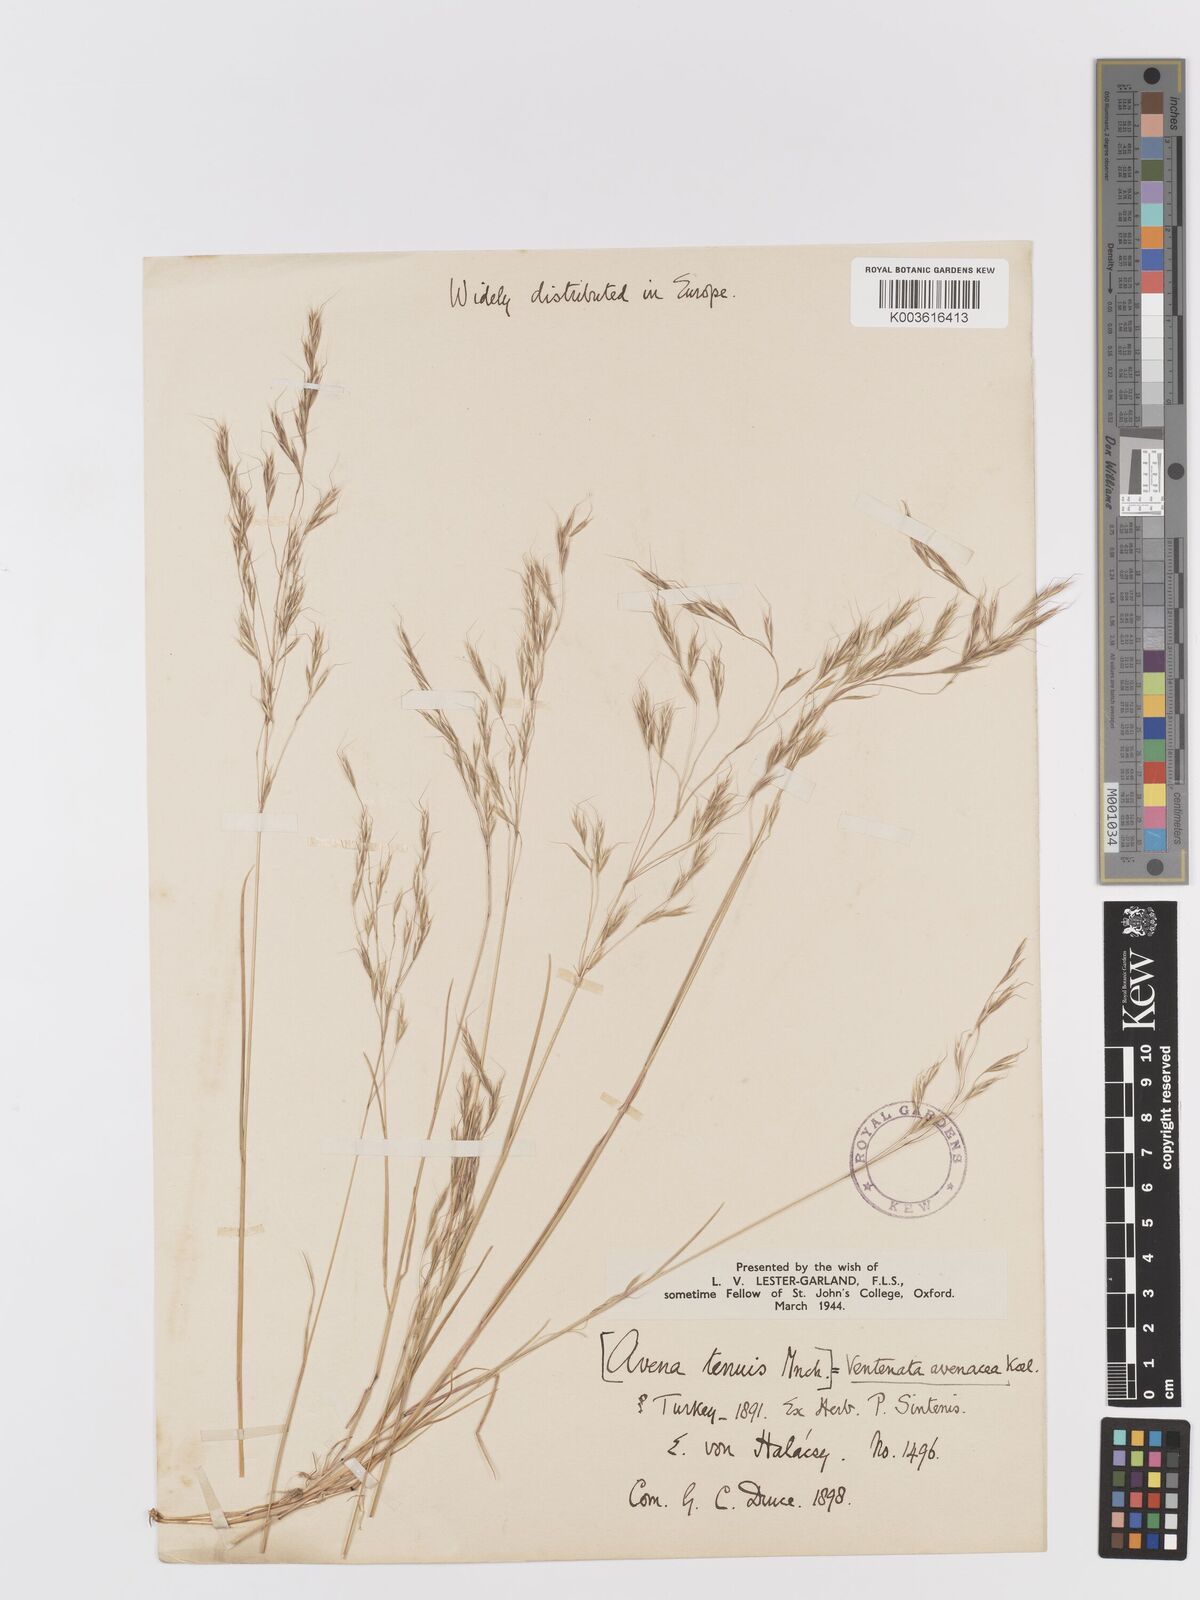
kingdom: Plantae
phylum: Tracheophyta
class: Liliopsida
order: Poales
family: Poaceae
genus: Ventenata
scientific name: Ventenata dubia
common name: North africa grass
